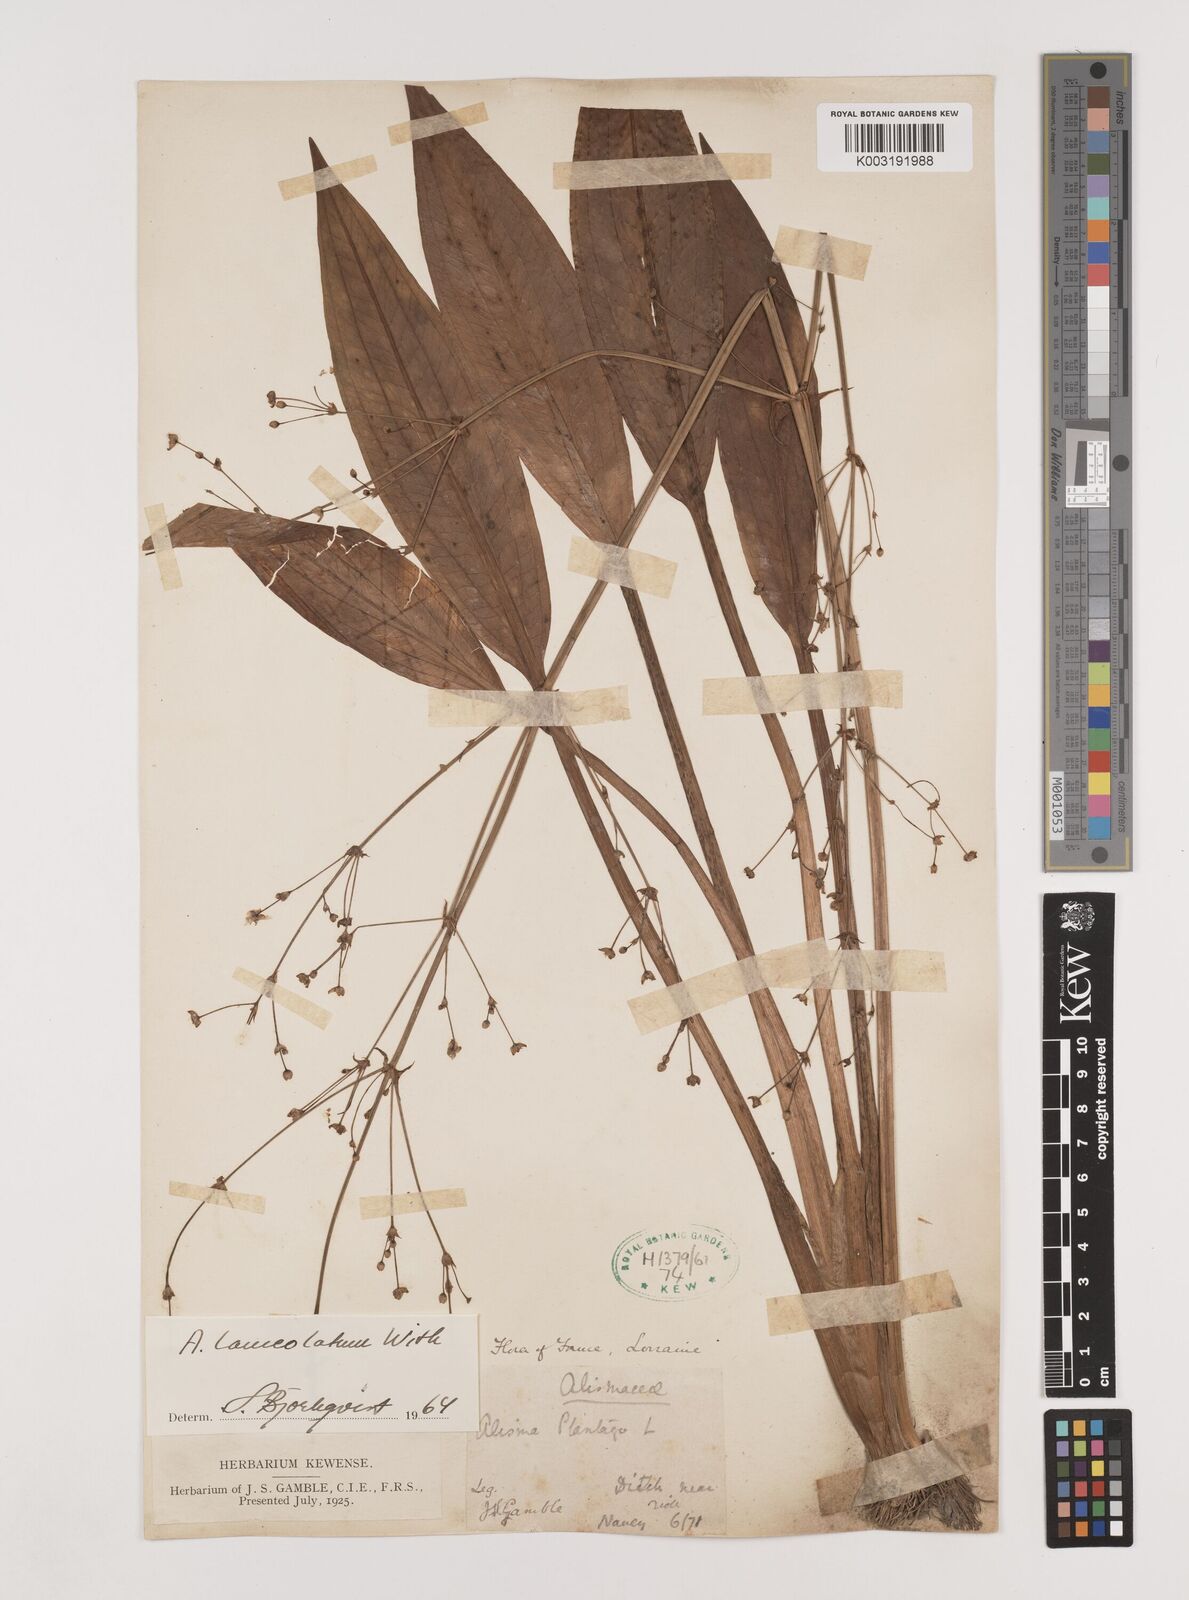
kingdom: Plantae
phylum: Tracheophyta
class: Liliopsida
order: Alismatales
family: Alismataceae
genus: Alisma
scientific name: Alisma lanceolatum
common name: Narrow-leaved water-plantain
